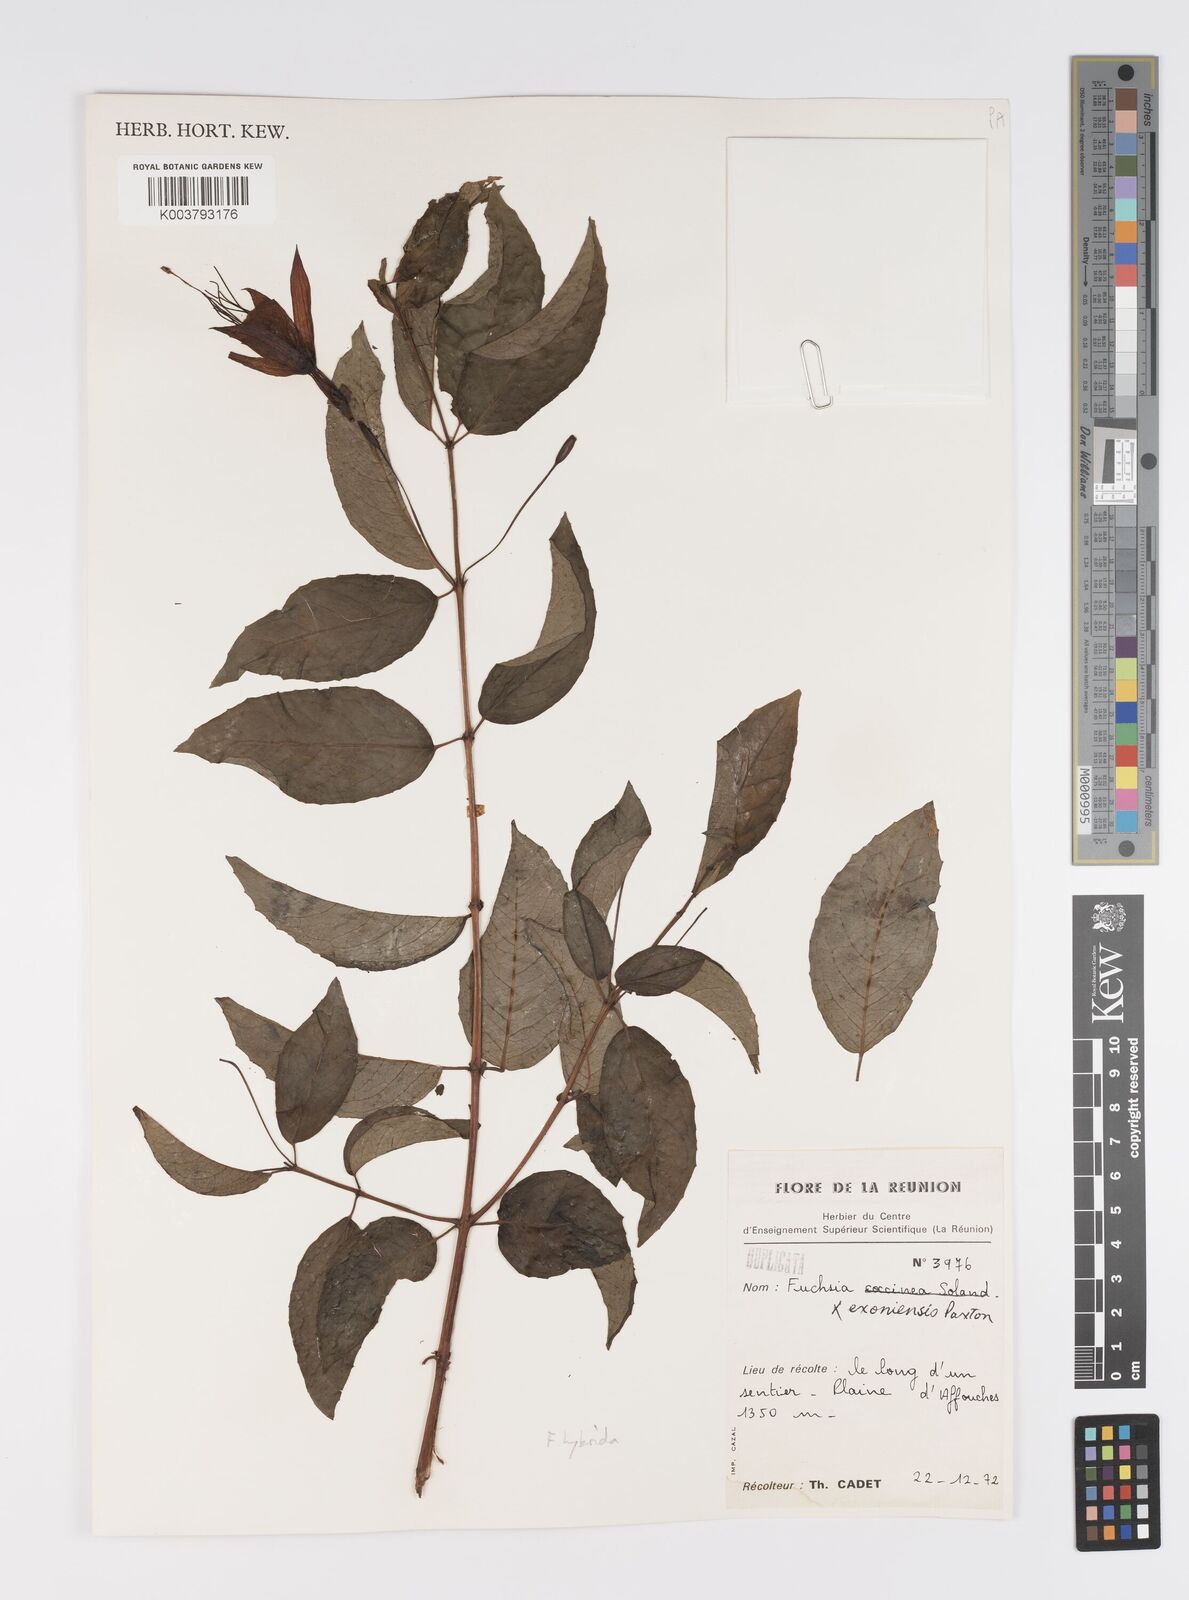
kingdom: Plantae
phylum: Tracheophyta
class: Magnoliopsida
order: Myrtales
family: Onagraceae
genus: Fuchsia
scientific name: Fuchsia
